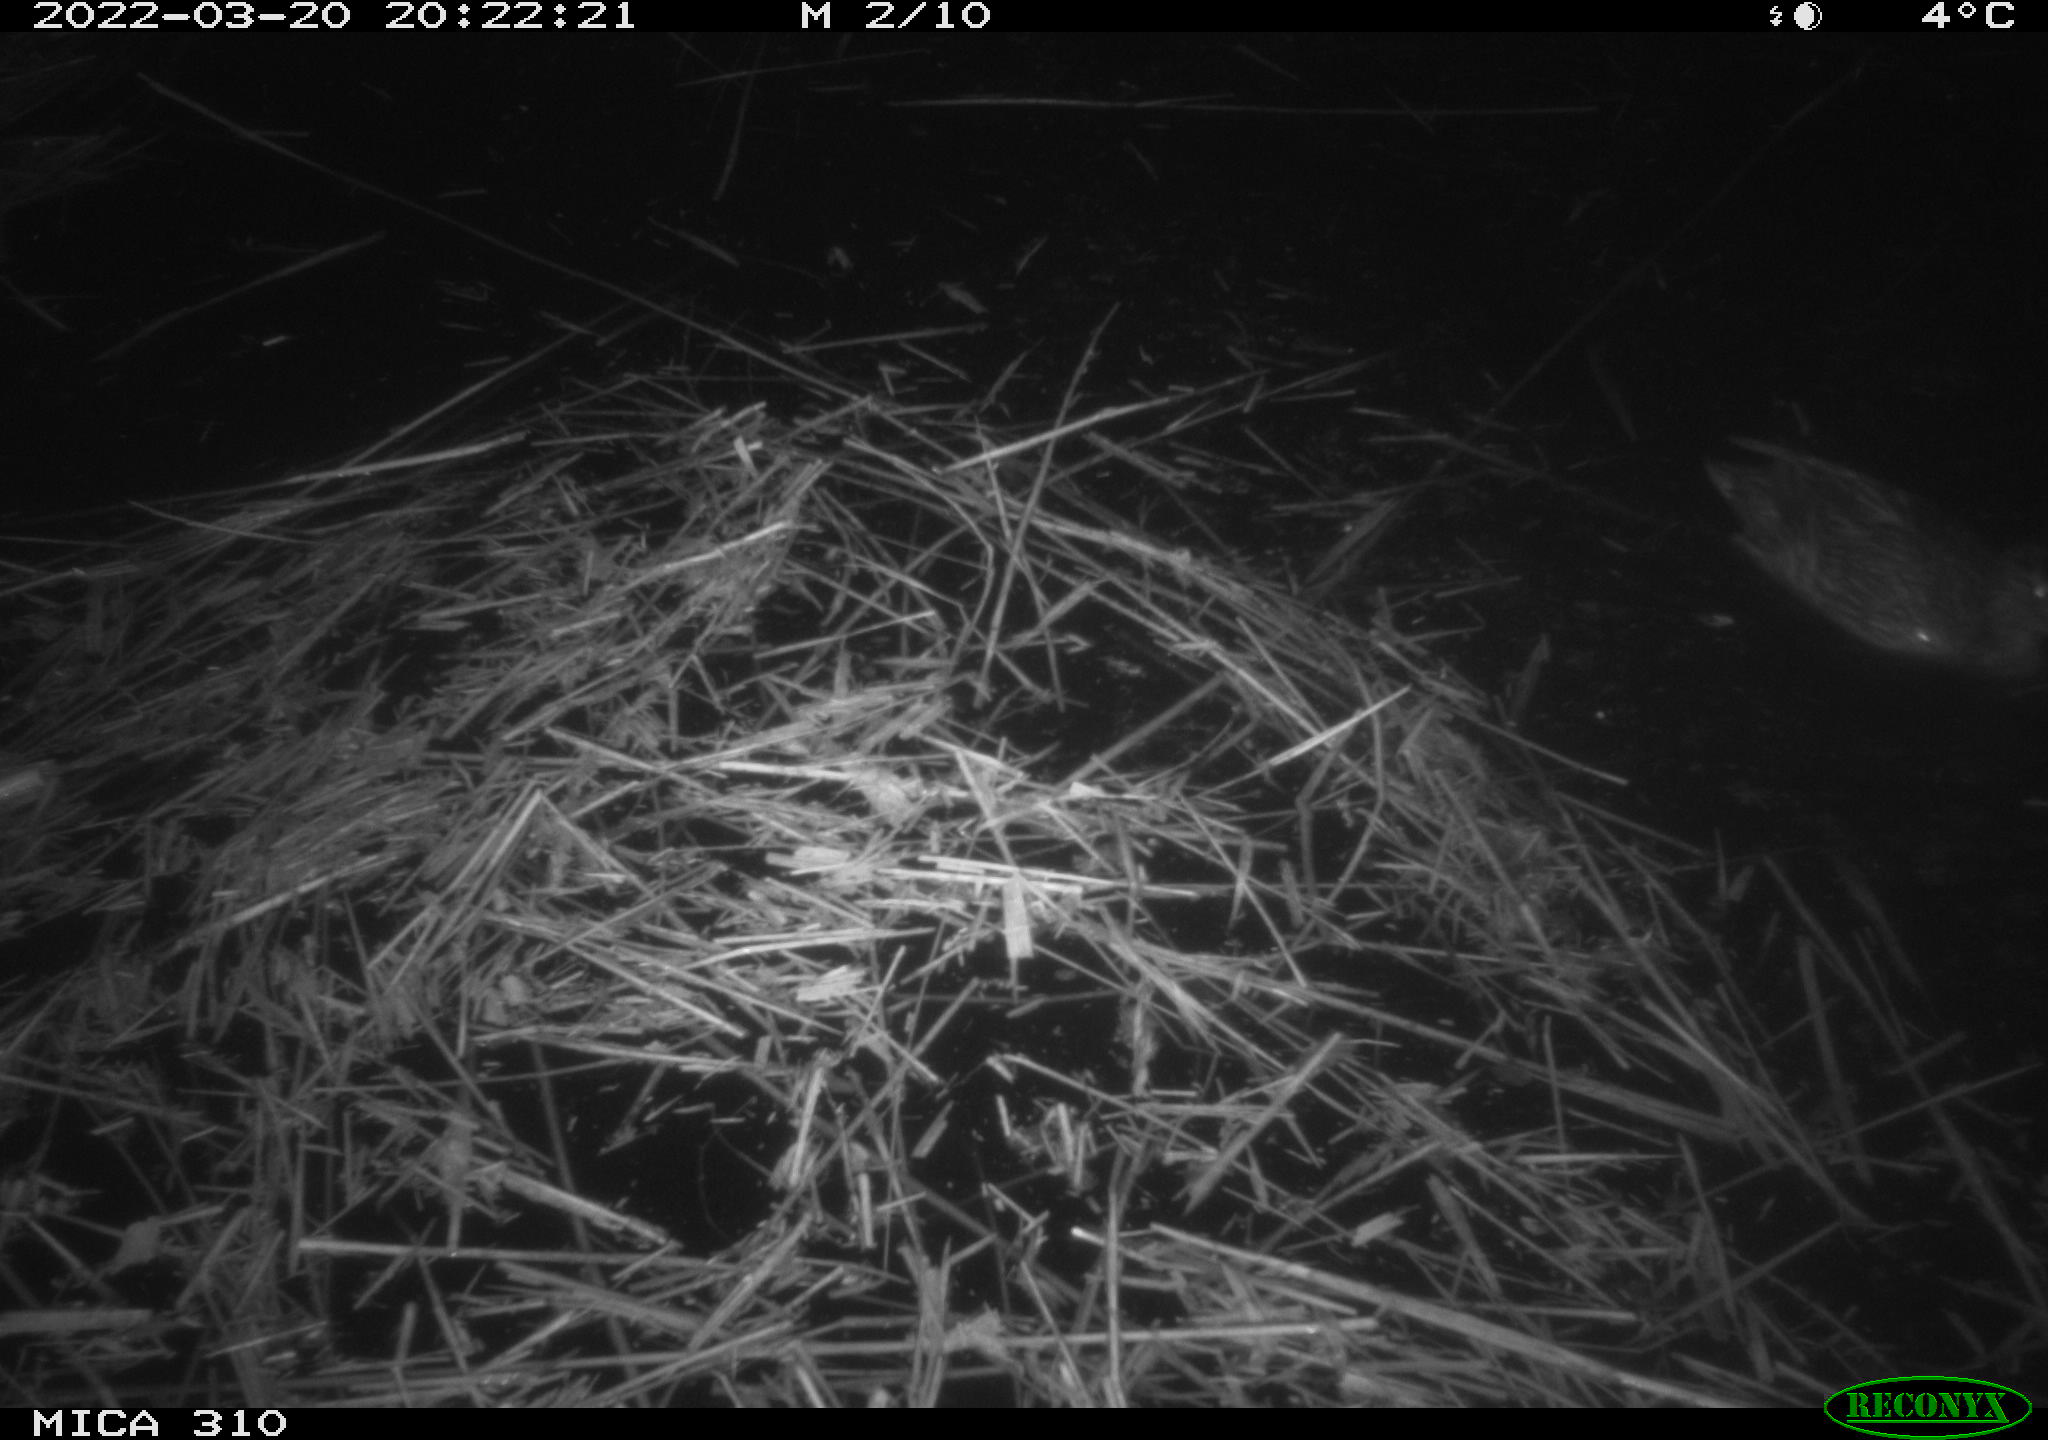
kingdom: Animalia
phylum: Chordata
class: Aves
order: Anseriformes
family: Anatidae
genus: Anas
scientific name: Anas platyrhynchos
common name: Mallard
